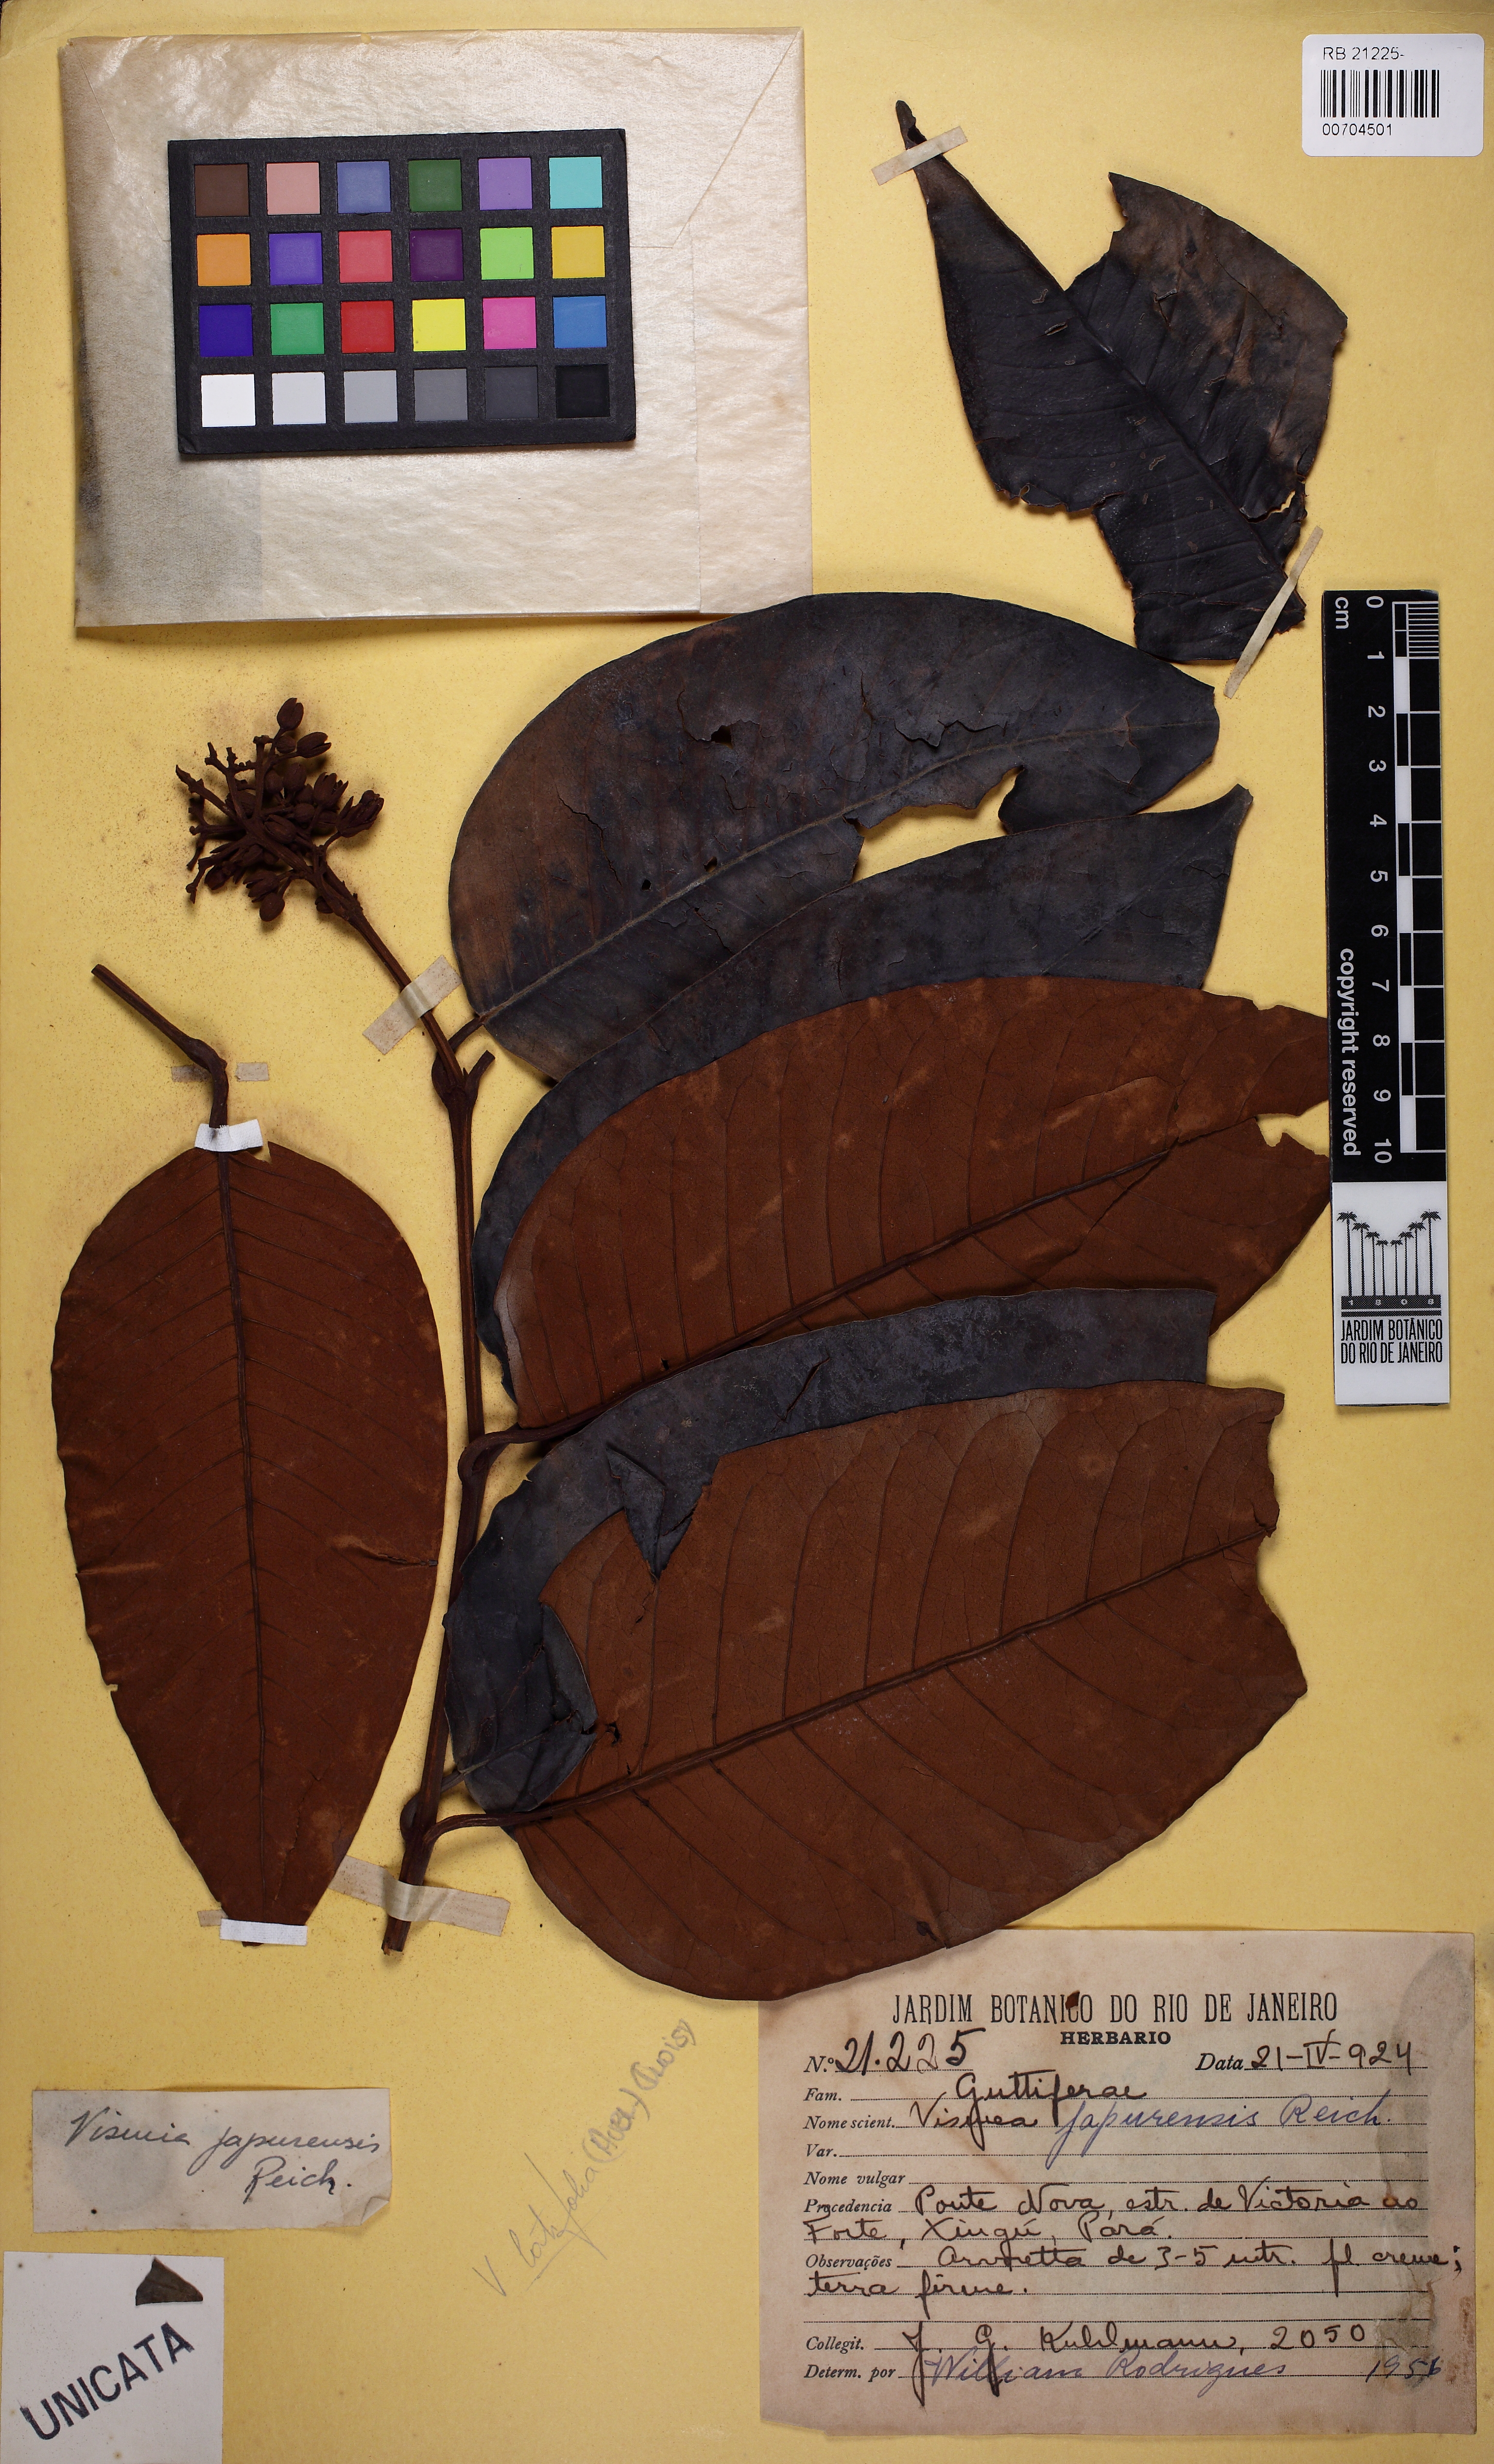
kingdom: Plantae
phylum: Tracheophyta
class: Magnoliopsida
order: Malpighiales
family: Hypericaceae
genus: Vismia
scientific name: Vismia ferruginea
